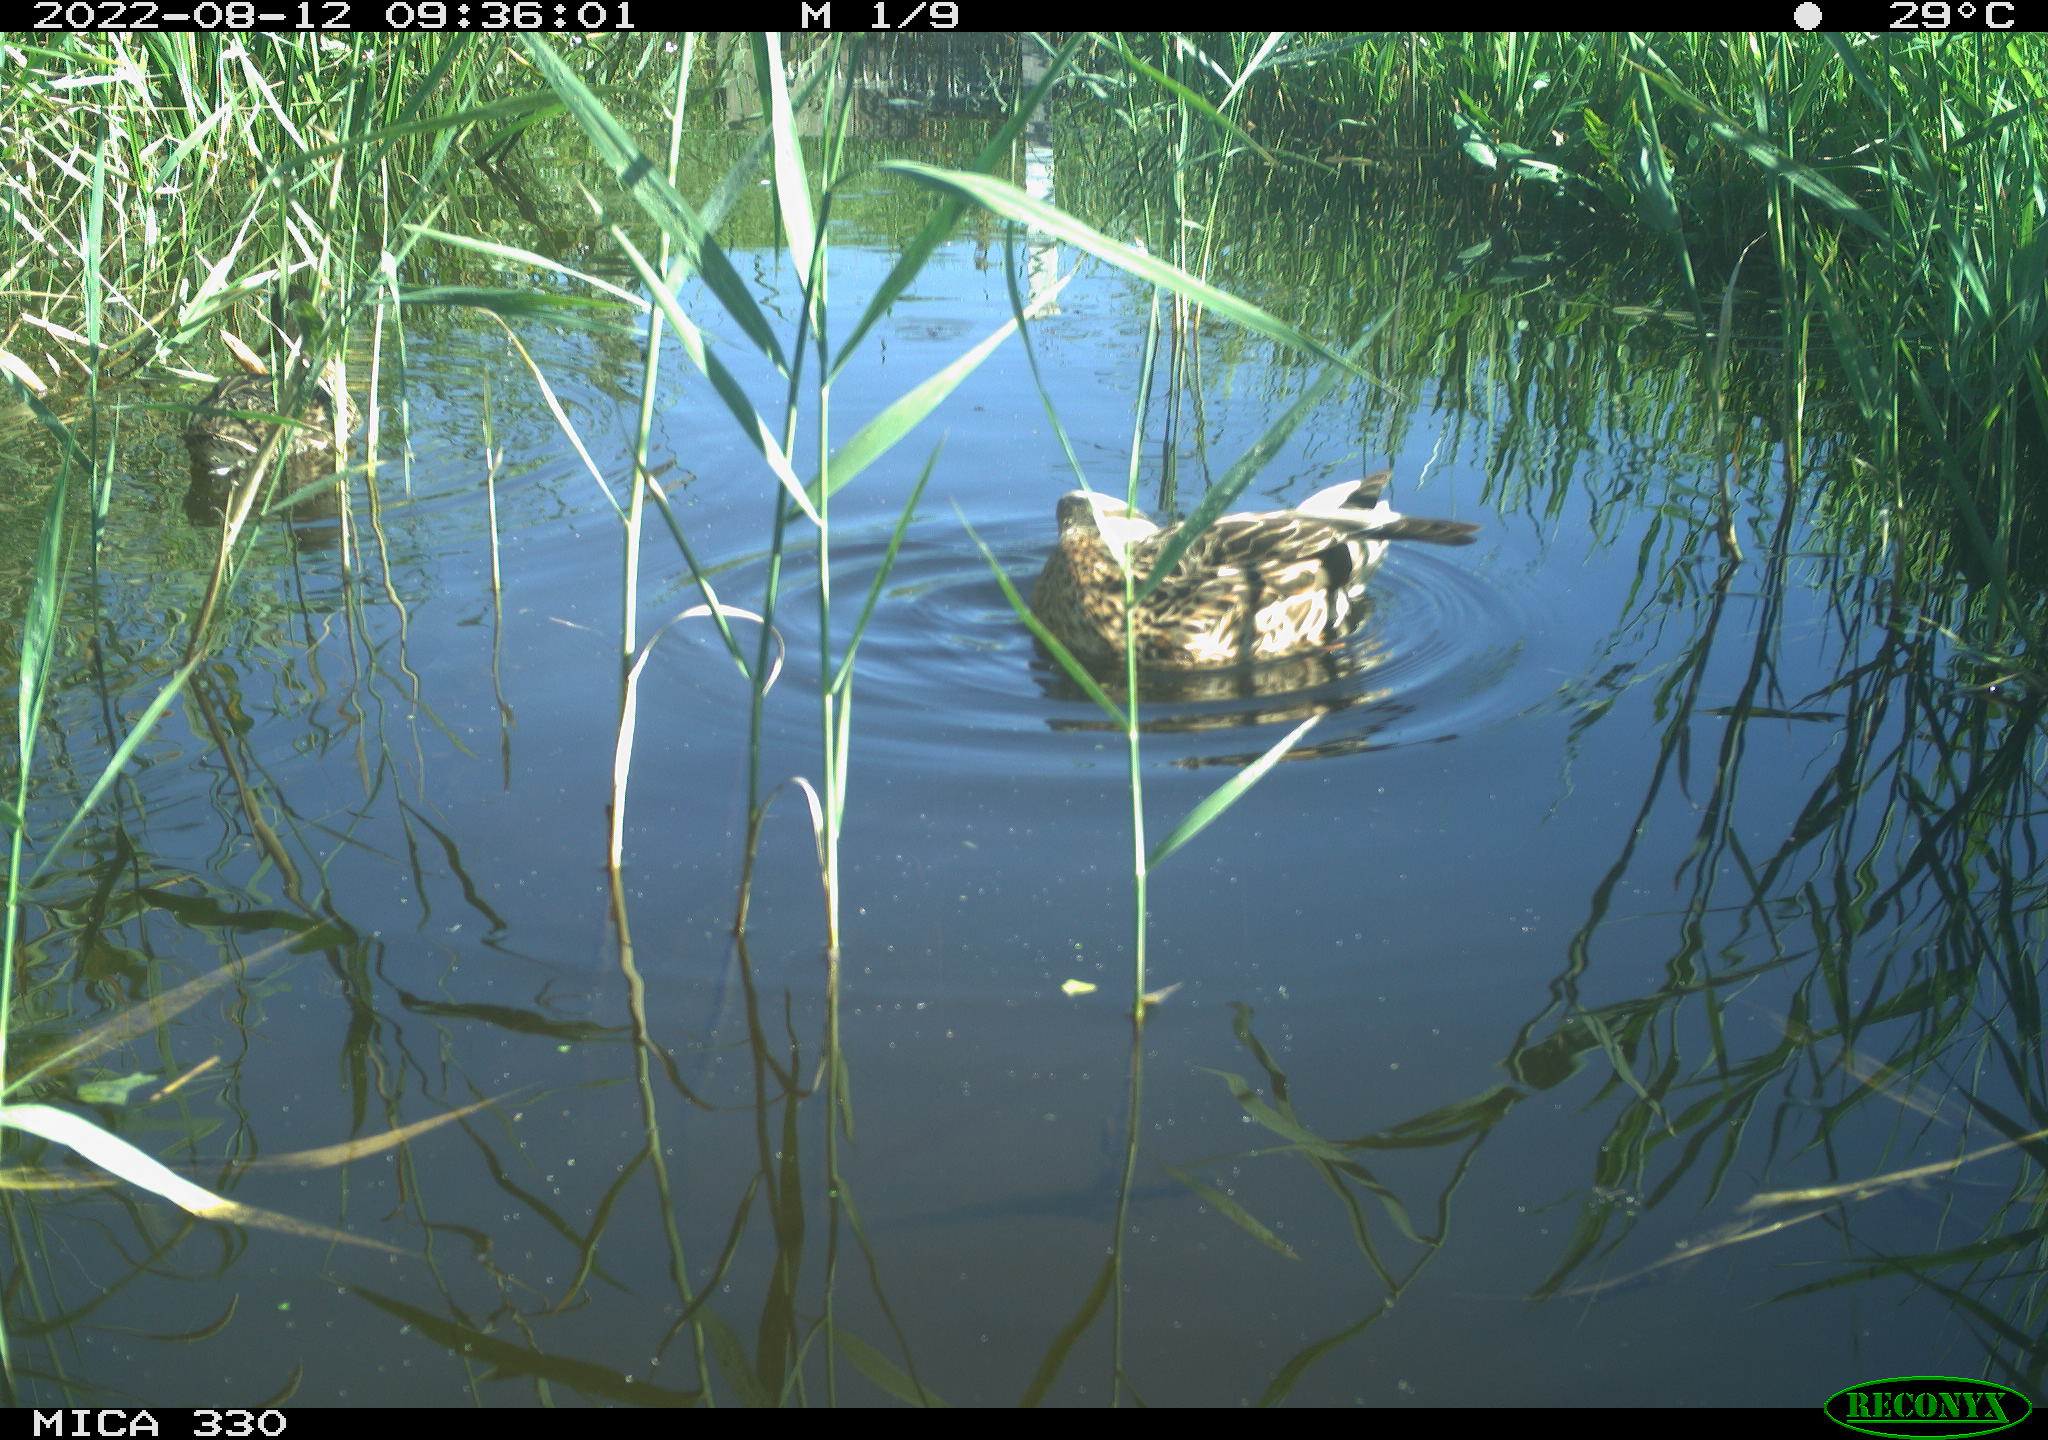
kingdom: Animalia
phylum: Chordata
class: Aves
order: Anseriformes
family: Anatidae
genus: Anas
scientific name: Anas platyrhynchos
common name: Mallard
